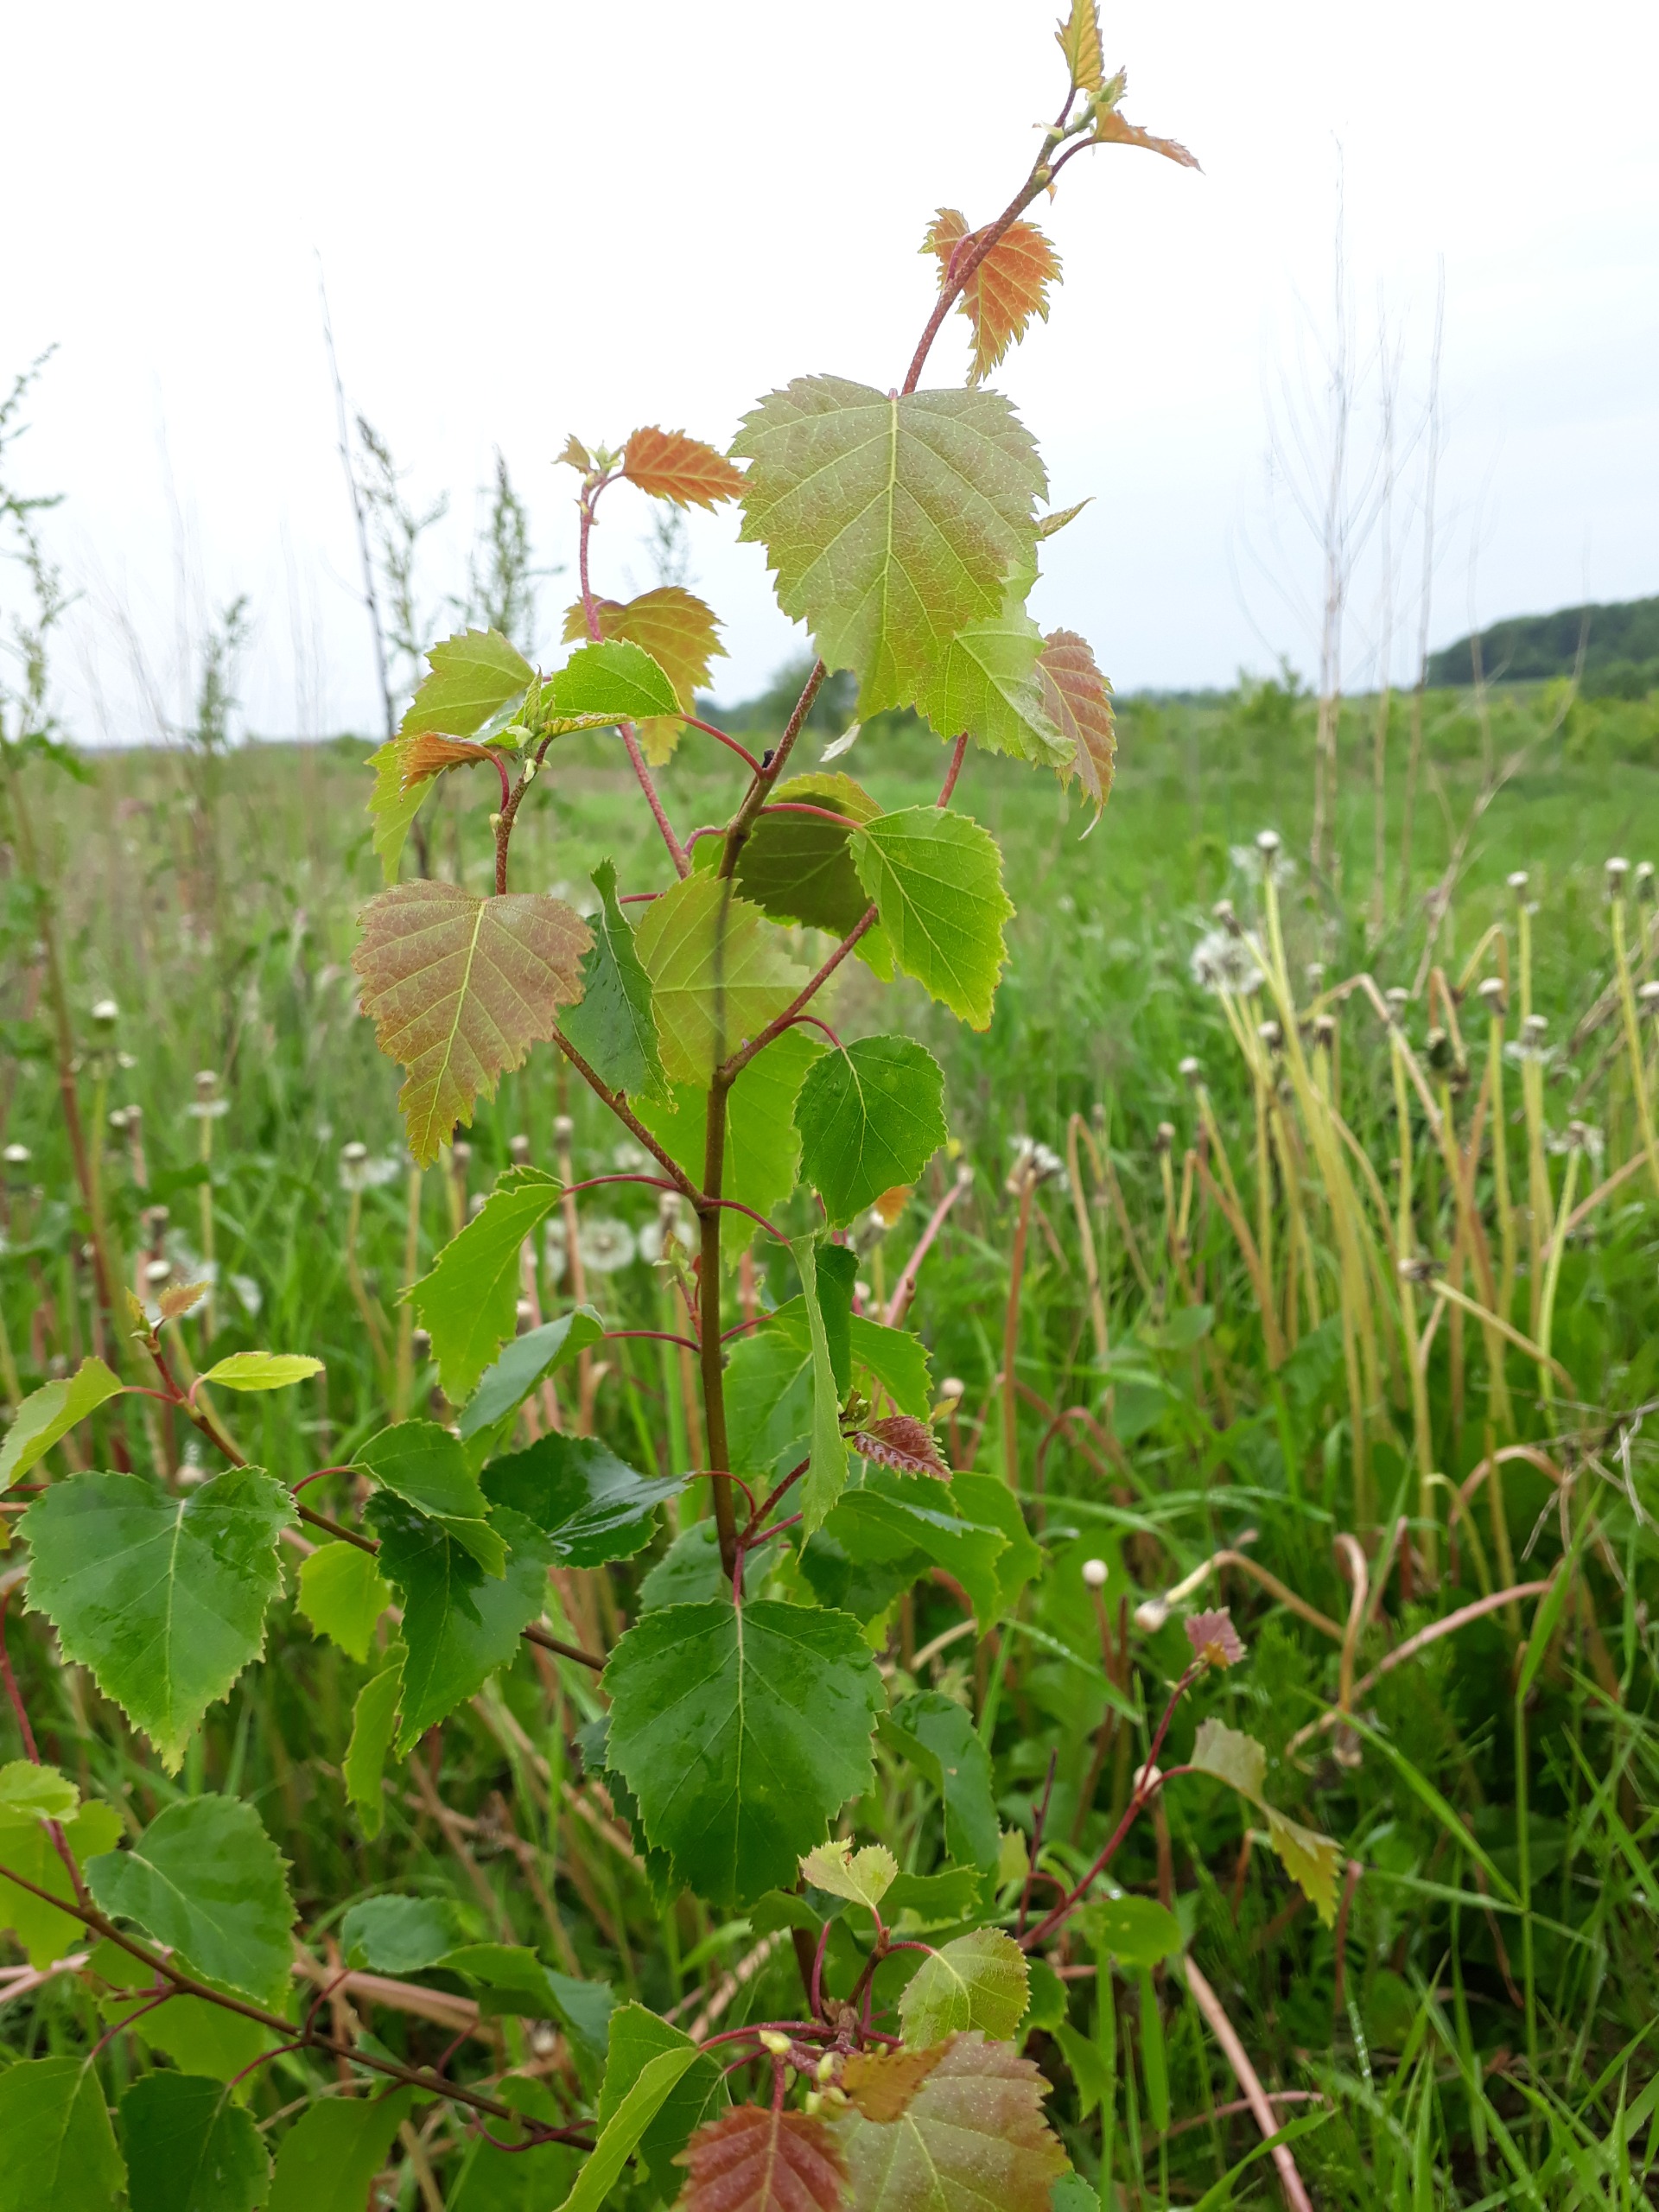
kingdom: Plantae
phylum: Tracheophyta
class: Magnoliopsida
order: Fagales
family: Betulaceae
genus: Betula
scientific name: Betula pendula
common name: Vorte-birk
